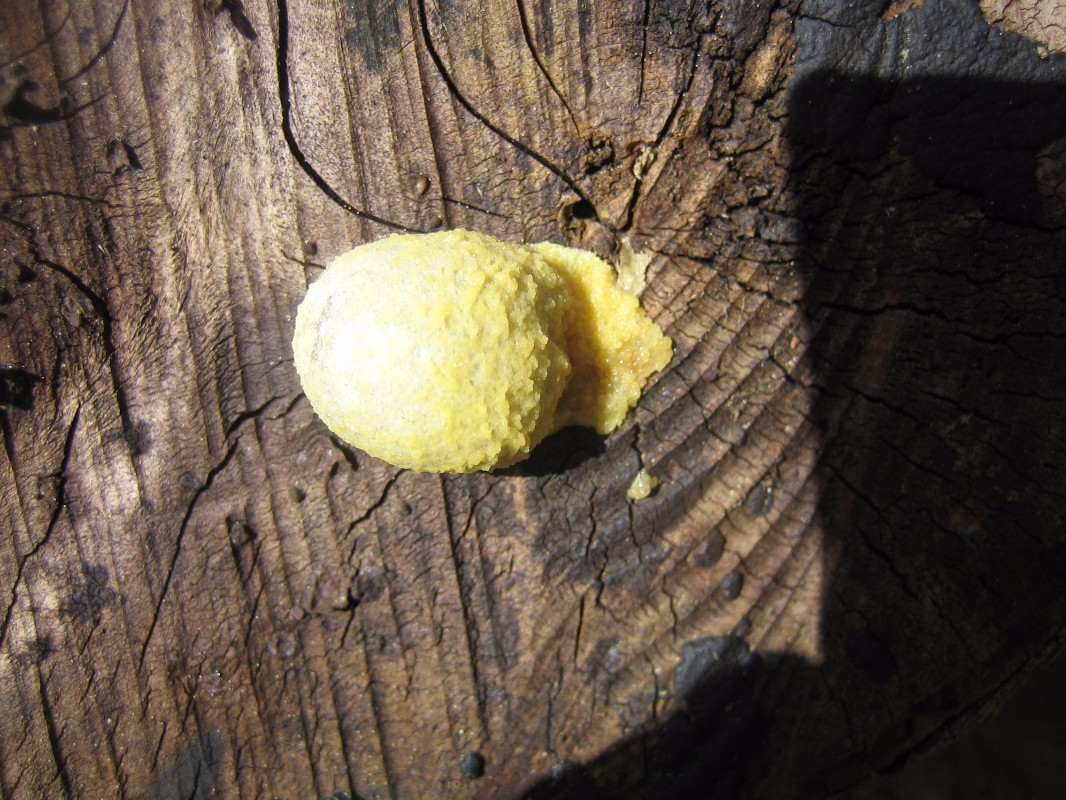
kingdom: Protozoa
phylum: Mycetozoa
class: Myxomycetes
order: Cribrariales
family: Tubiferaceae
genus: Reticularia
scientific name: Reticularia lycoperdon
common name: skinnende støvpude
